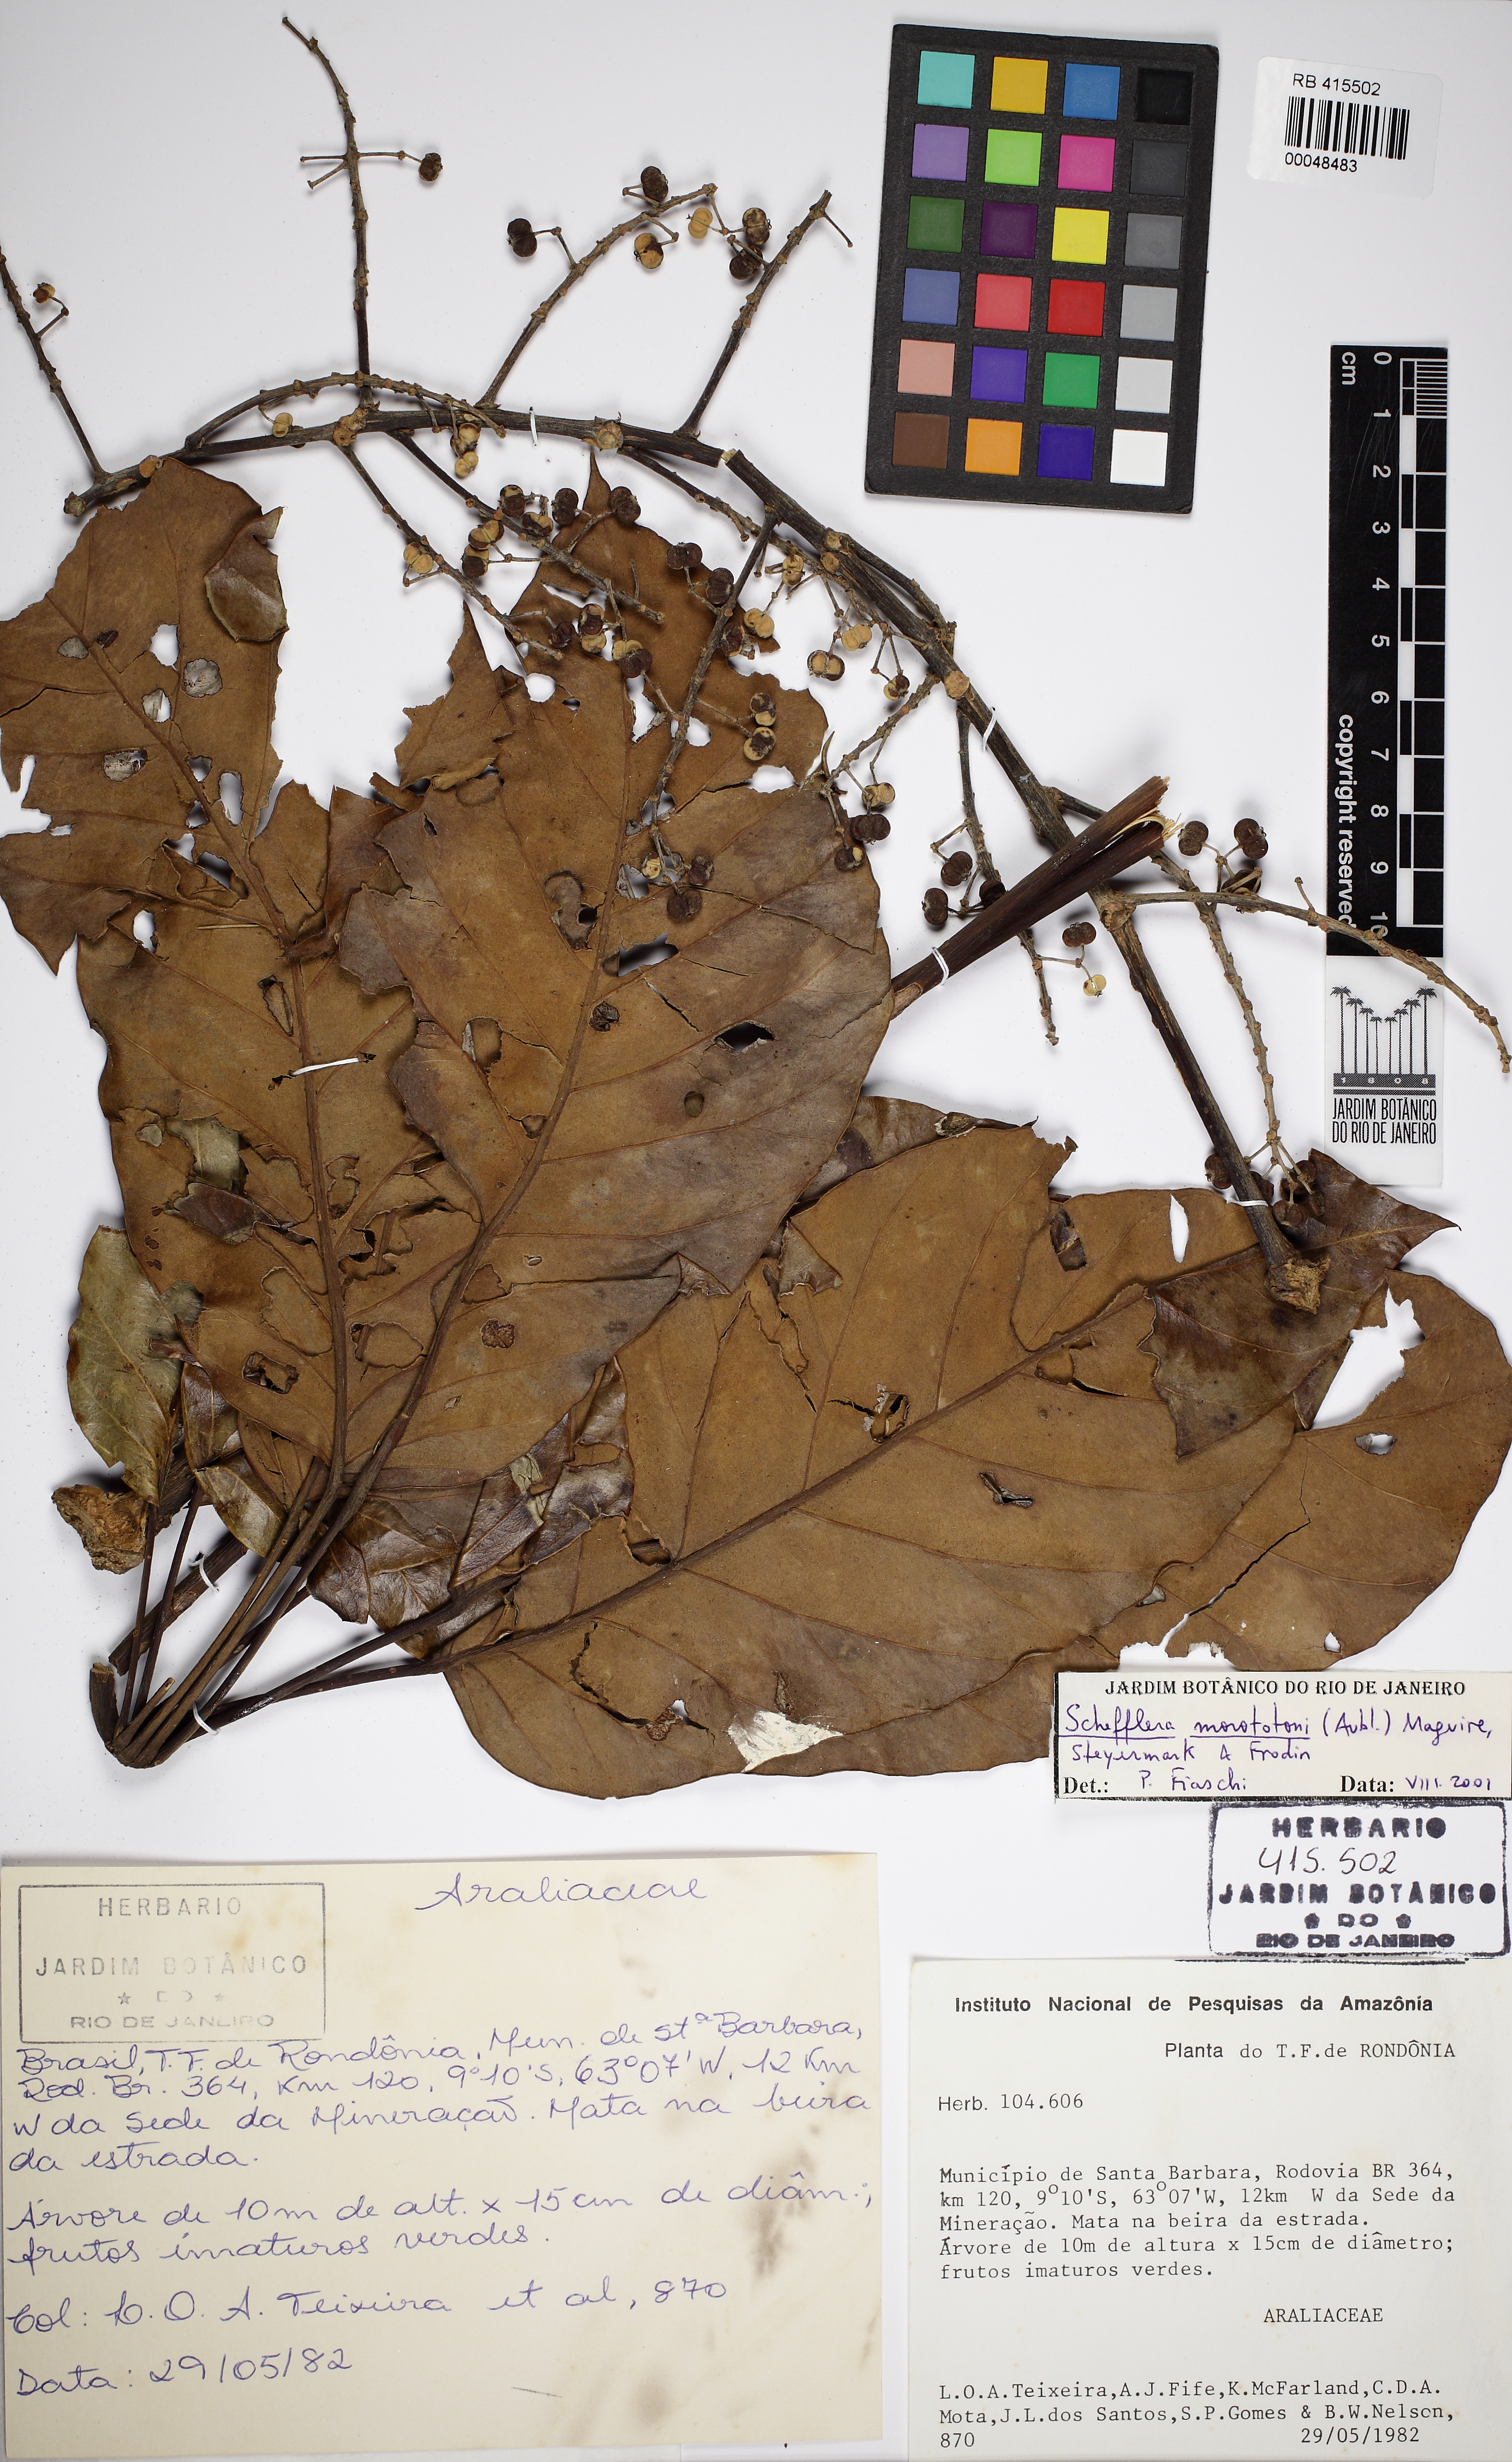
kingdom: Plantae
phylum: Tracheophyta
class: Magnoliopsida
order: Apiales
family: Araliaceae
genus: Didymopanax
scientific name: Didymopanax morototoni
